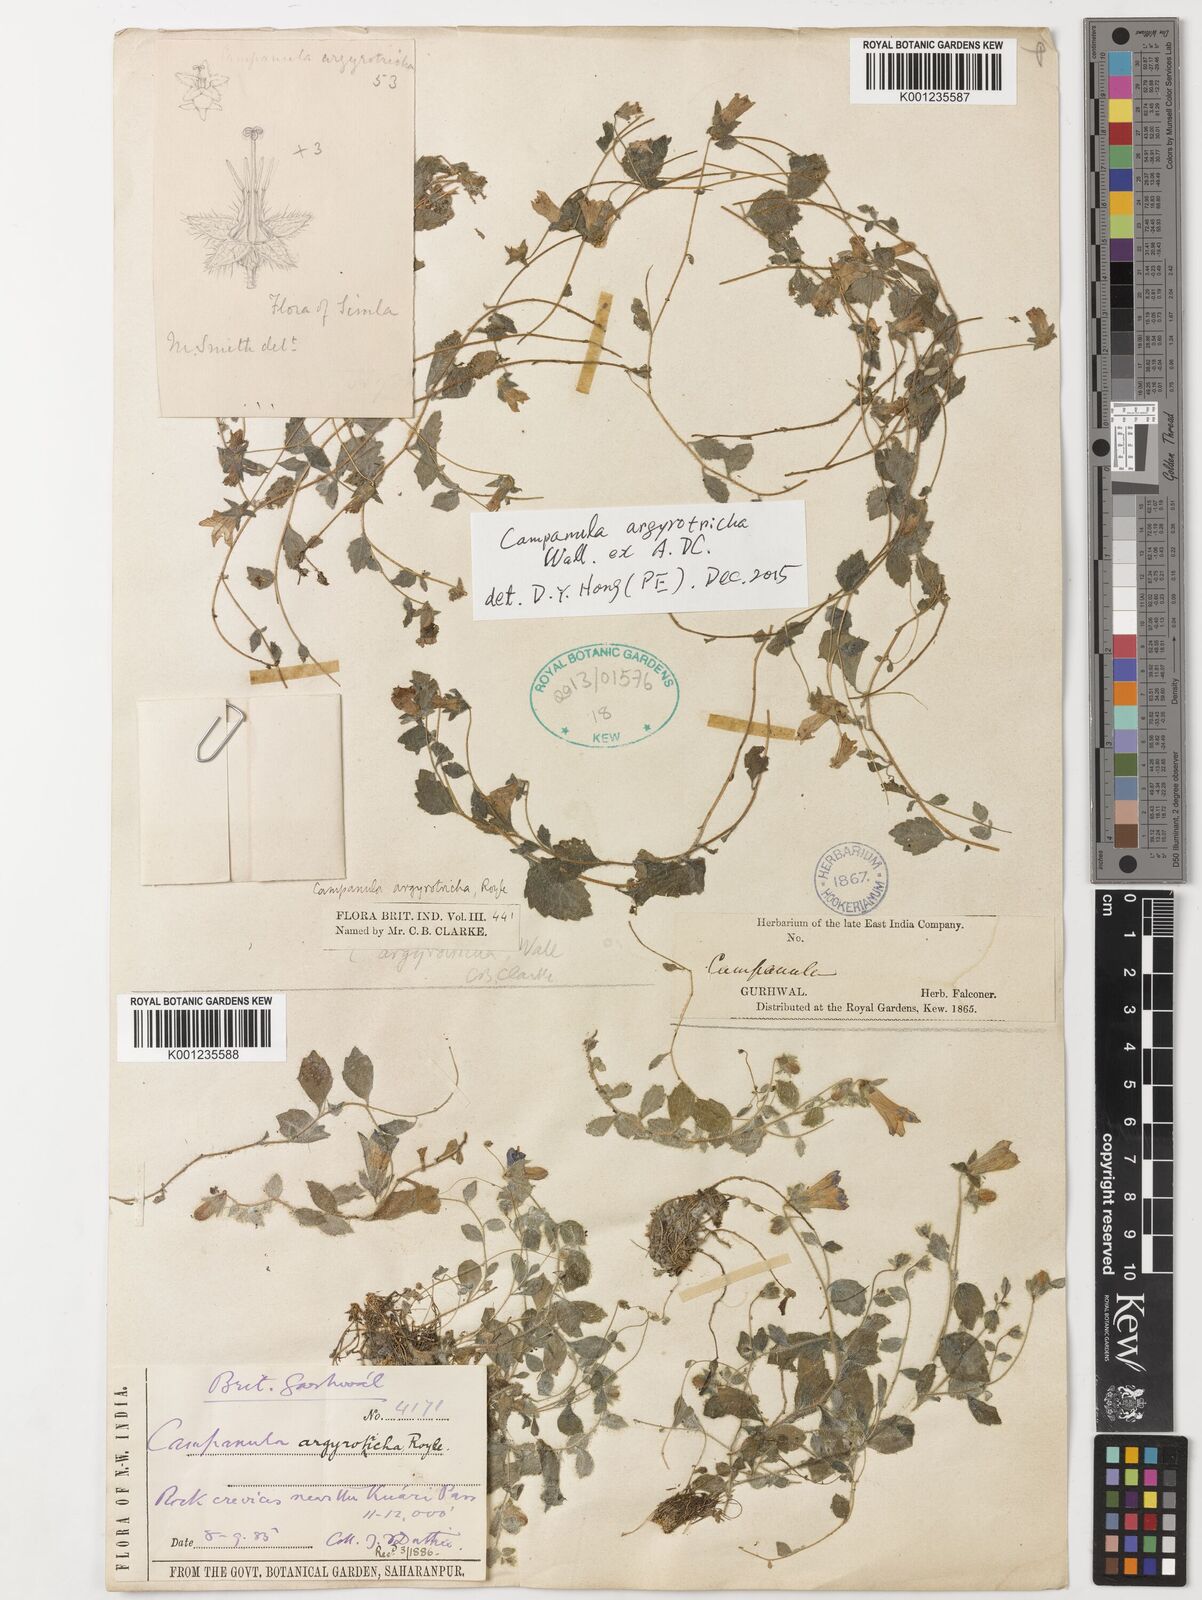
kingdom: Plantae
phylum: Tracheophyta
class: Magnoliopsida
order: Asterales
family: Campanulaceae
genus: Campanula
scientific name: Campanula
